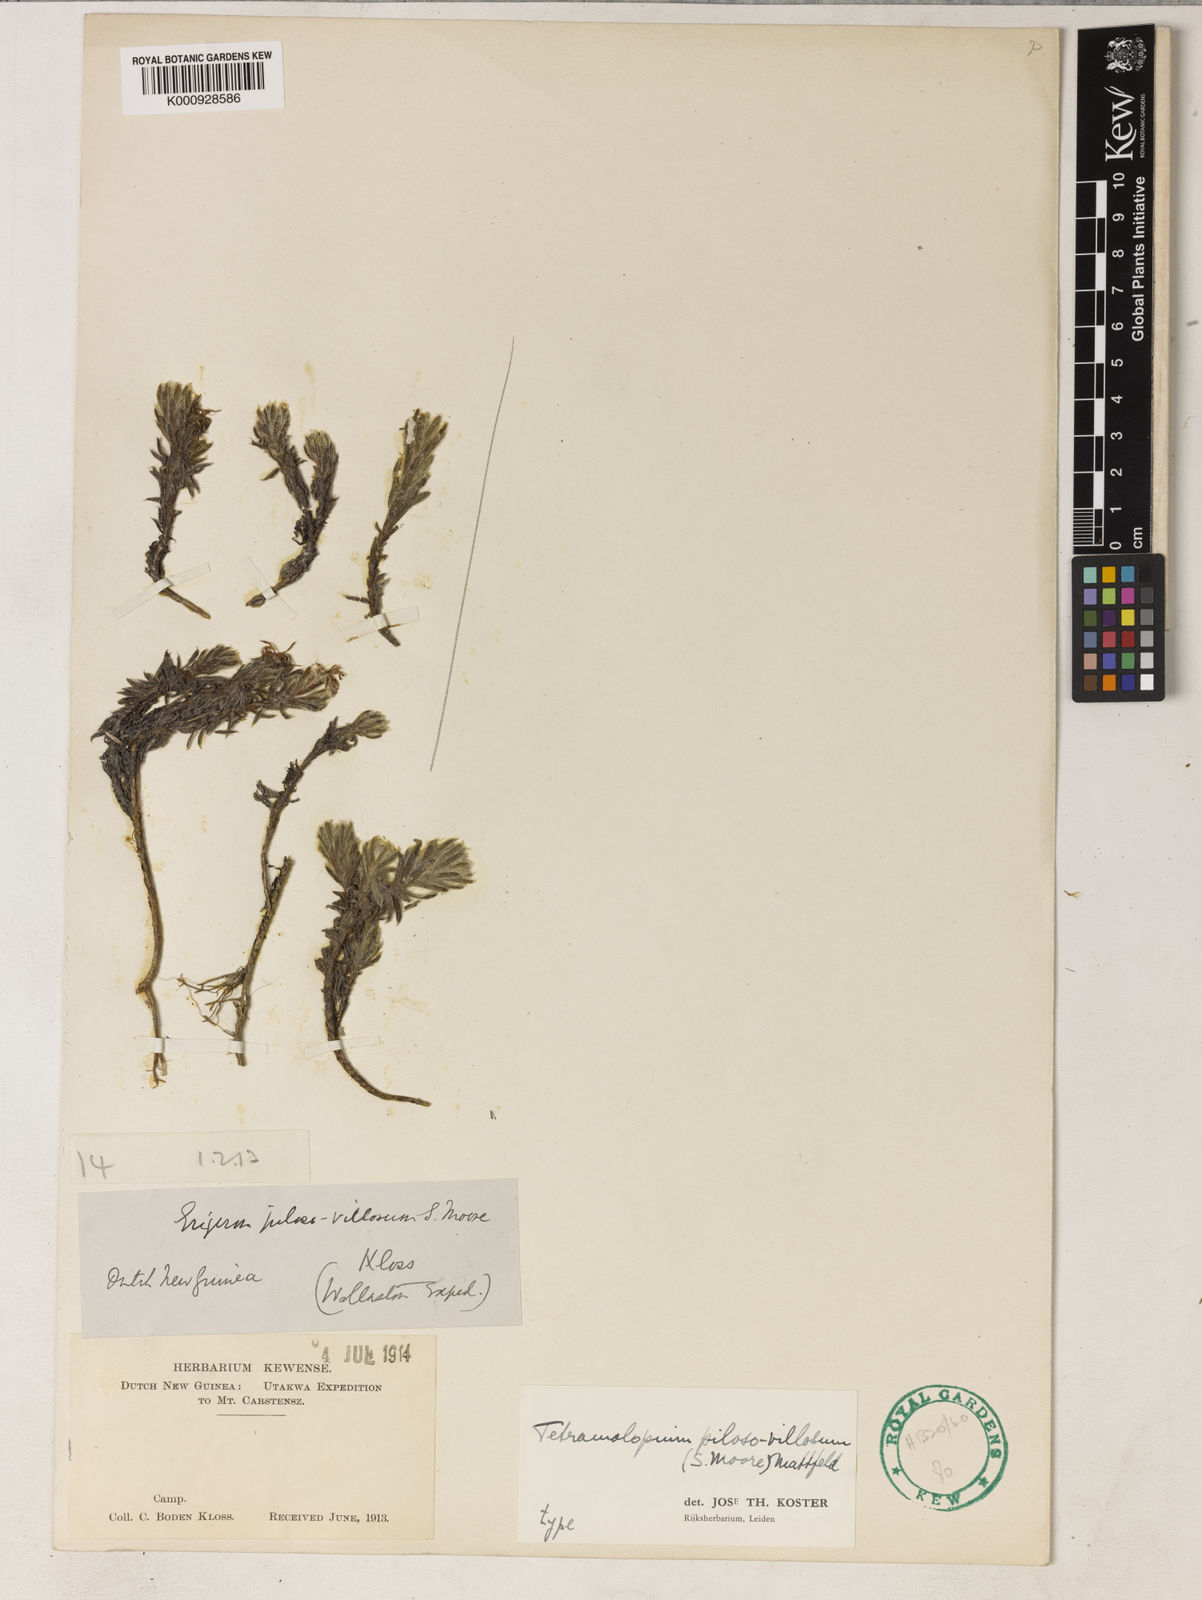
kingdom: Plantae
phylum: Tracheophyta
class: Magnoliopsida
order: Asterales
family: Asteraceae
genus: Tetramolopium
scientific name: Tetramolopium piloso-villosum
